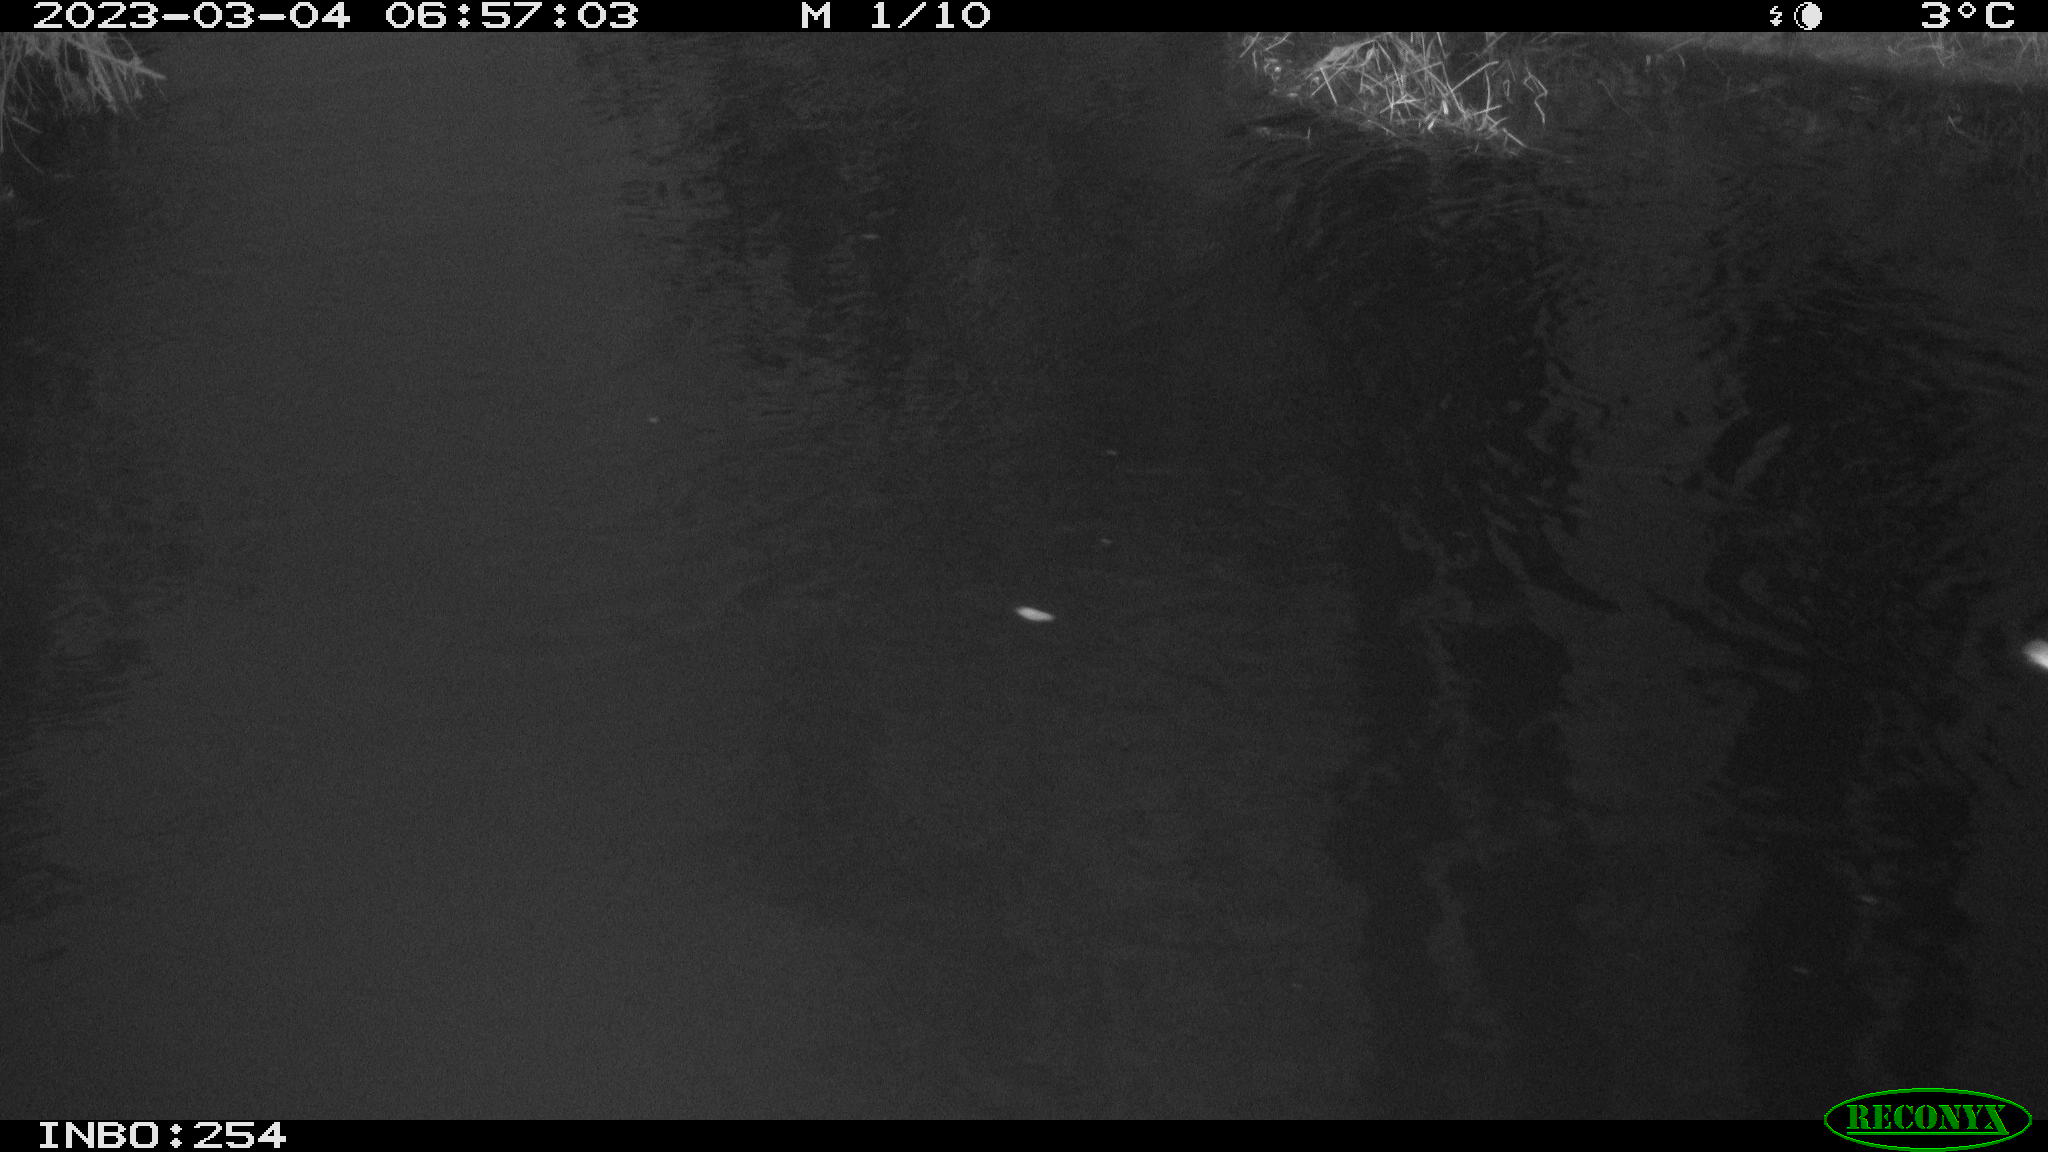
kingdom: Animalia
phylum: Chordata
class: Aves
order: Anseriformes
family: Anatidae
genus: Anas
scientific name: Anas platyrhynchos
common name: Mallard
